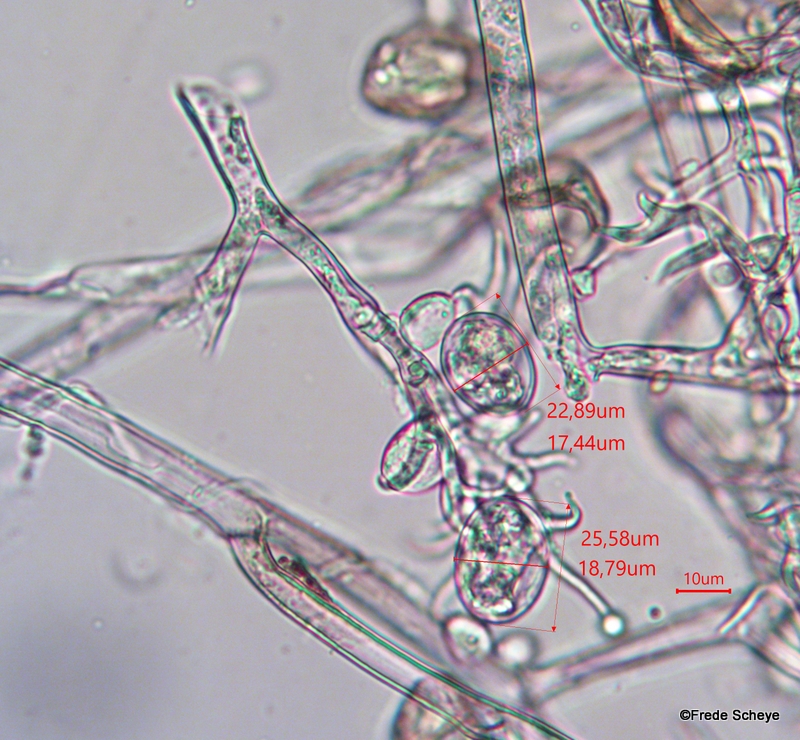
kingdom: Chromista
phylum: Oomycota
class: Peronosporea
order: Peronosporales
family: Peronosporaceae
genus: Peronospora
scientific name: Peronospora alta
